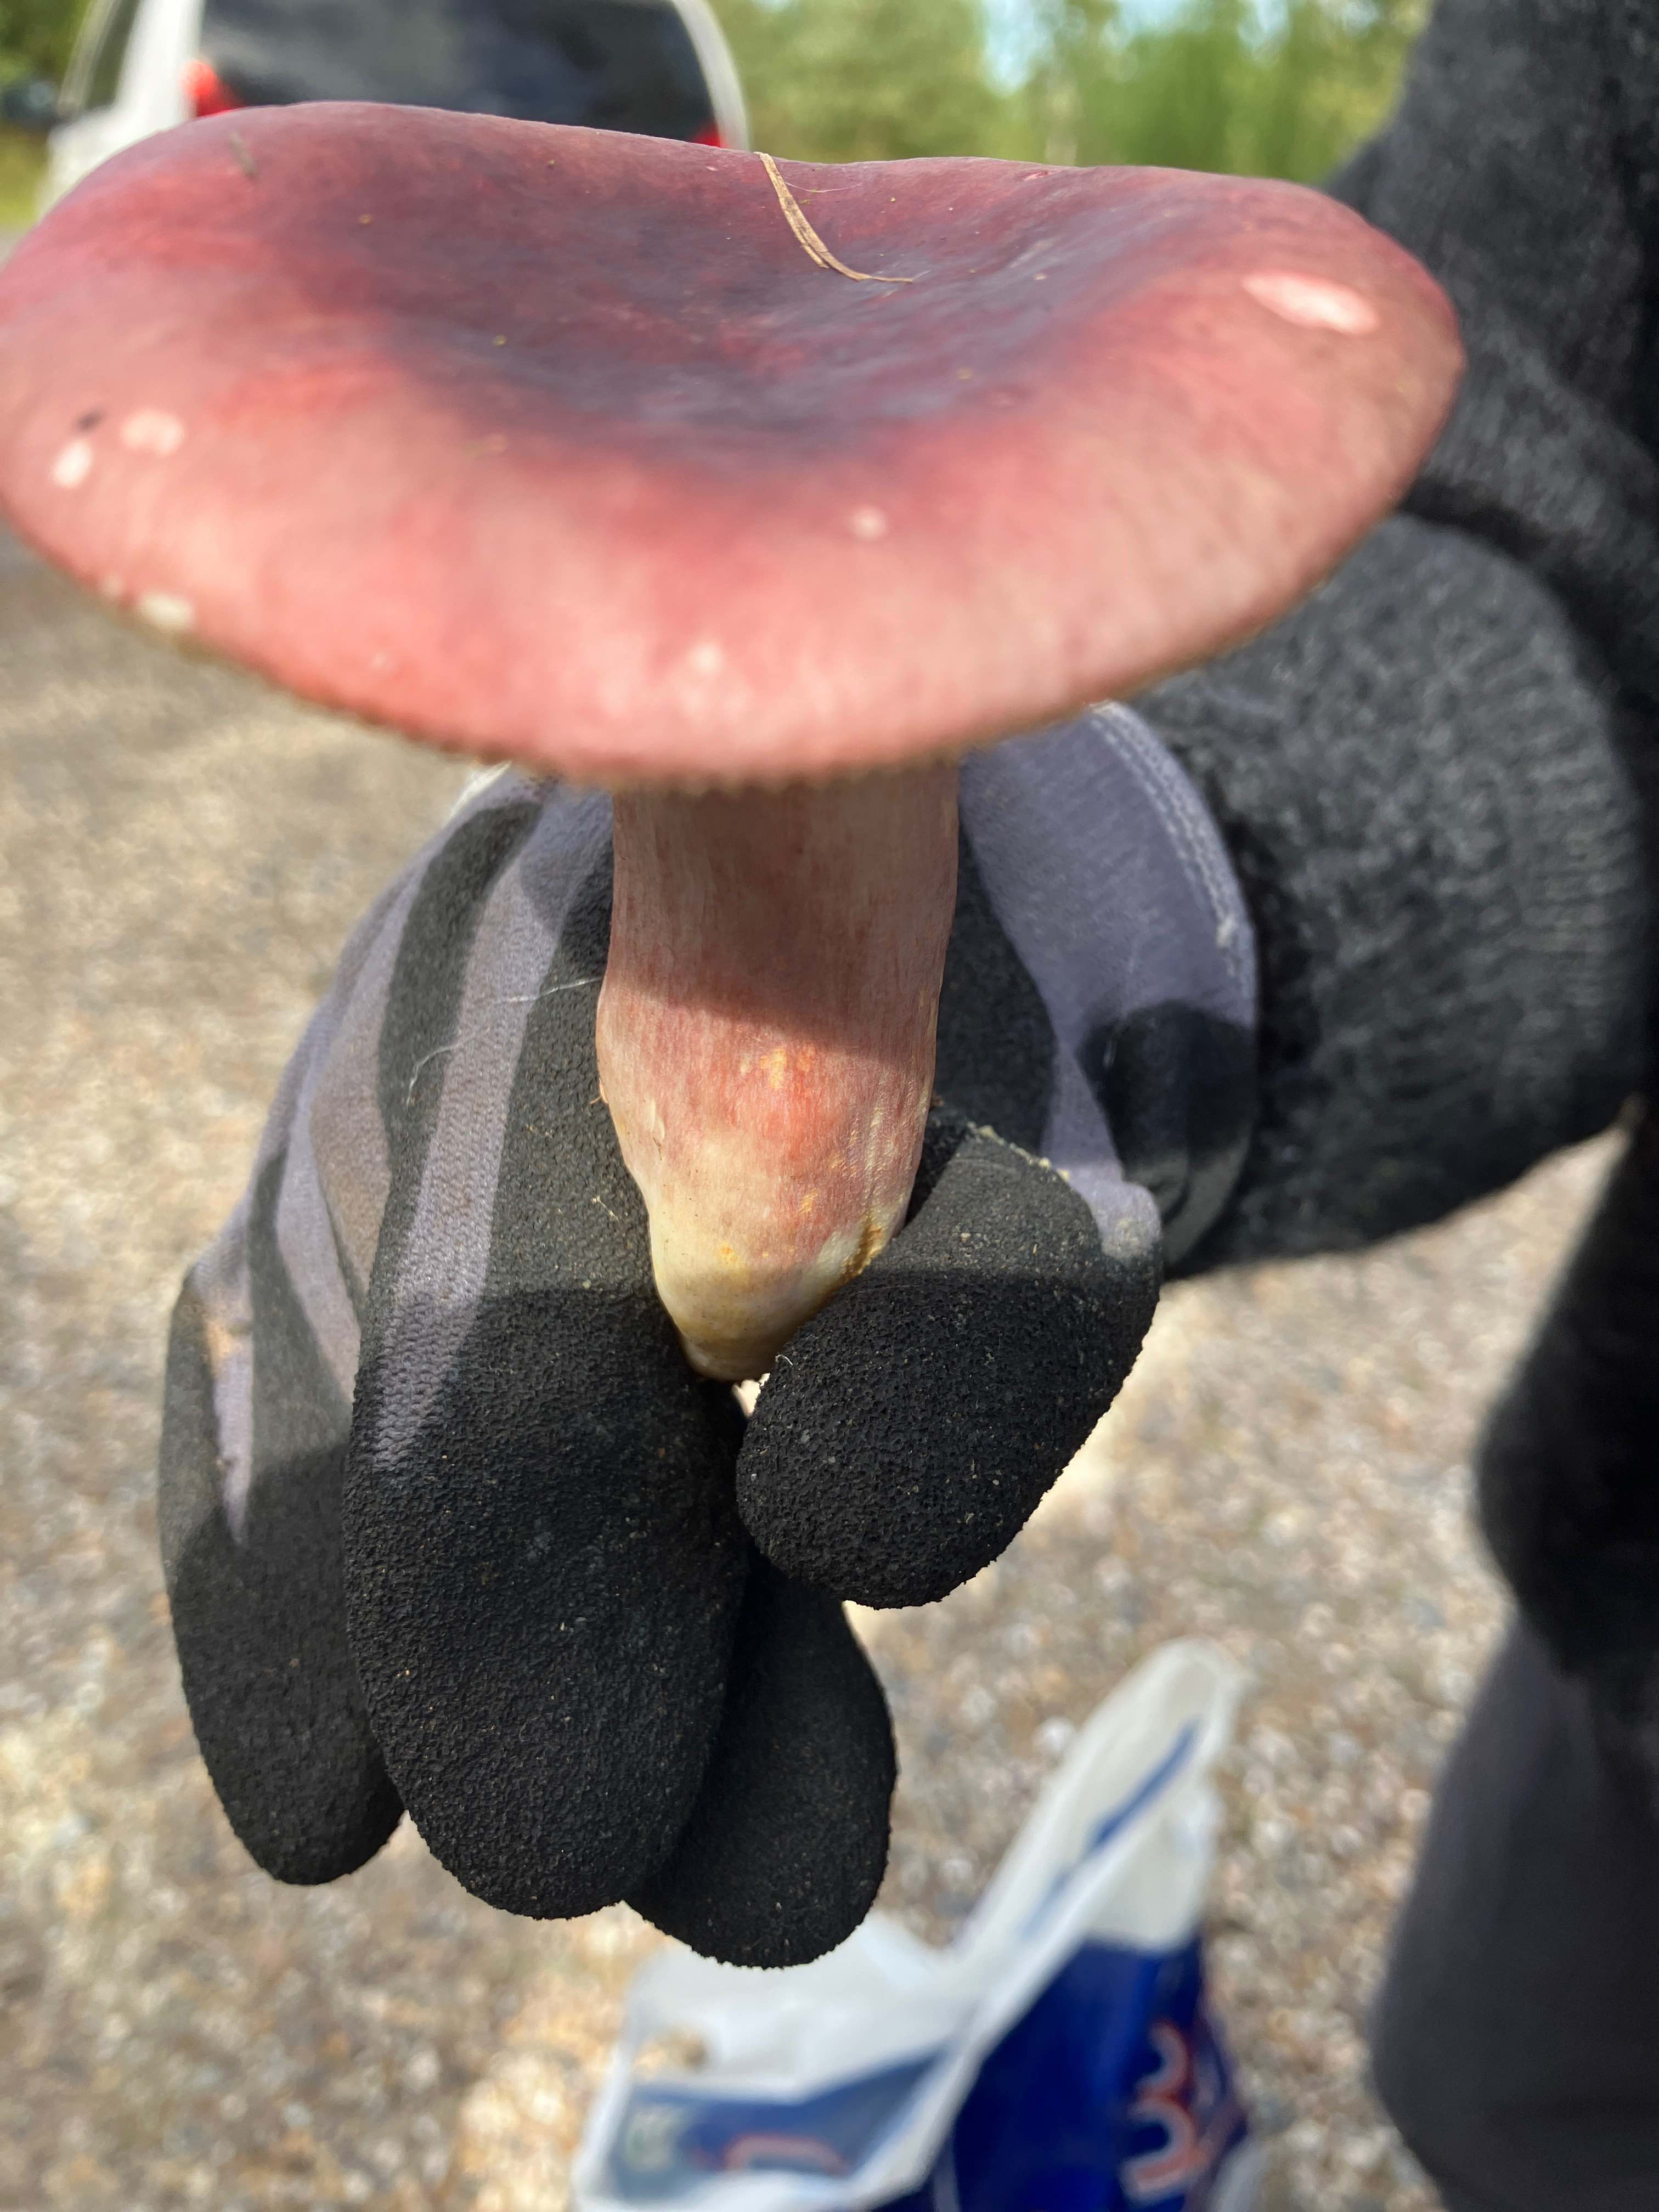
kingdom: Fungi
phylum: Basidiomycota
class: Agaricomycetes
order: Russulales
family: Russulaceae
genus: Russula
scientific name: Russula
